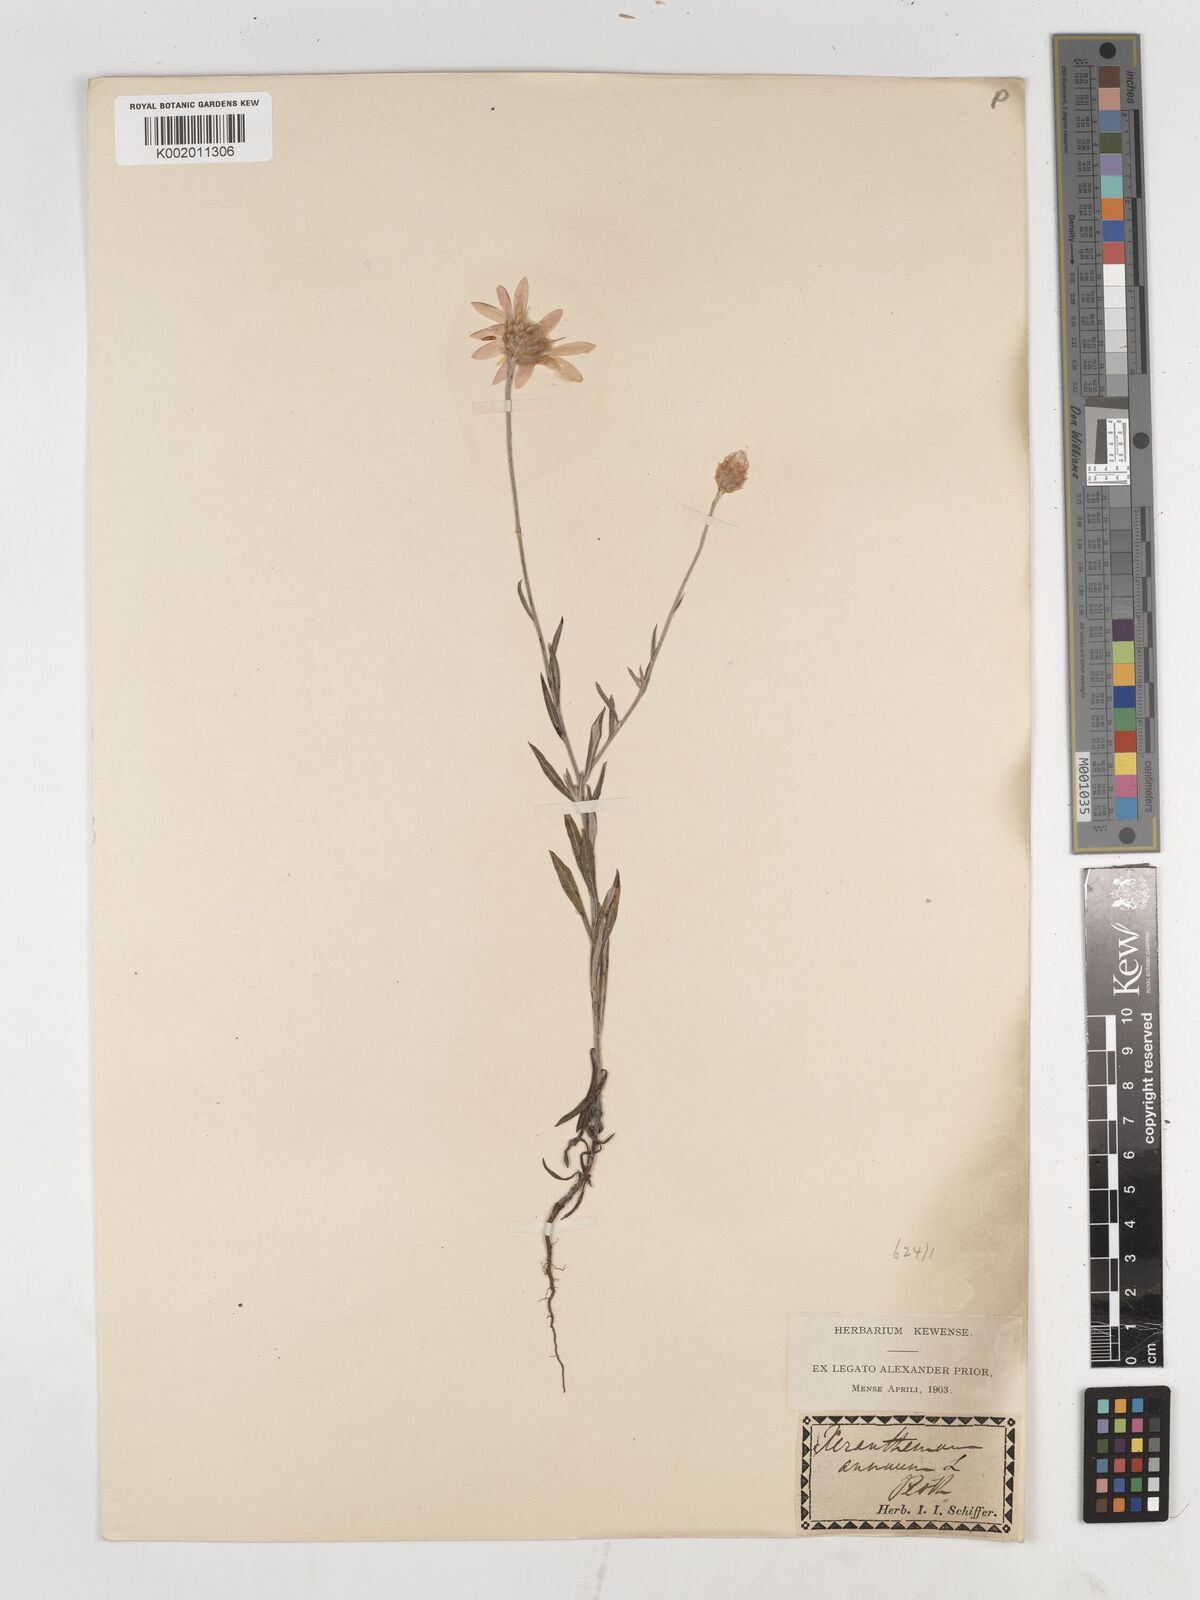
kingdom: Plantae
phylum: Tracheophyta
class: Magnoliopsida
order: Asterales
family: Asteraceae
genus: Xeranthemum
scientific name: Xeranthemum annuum
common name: Immortelle
